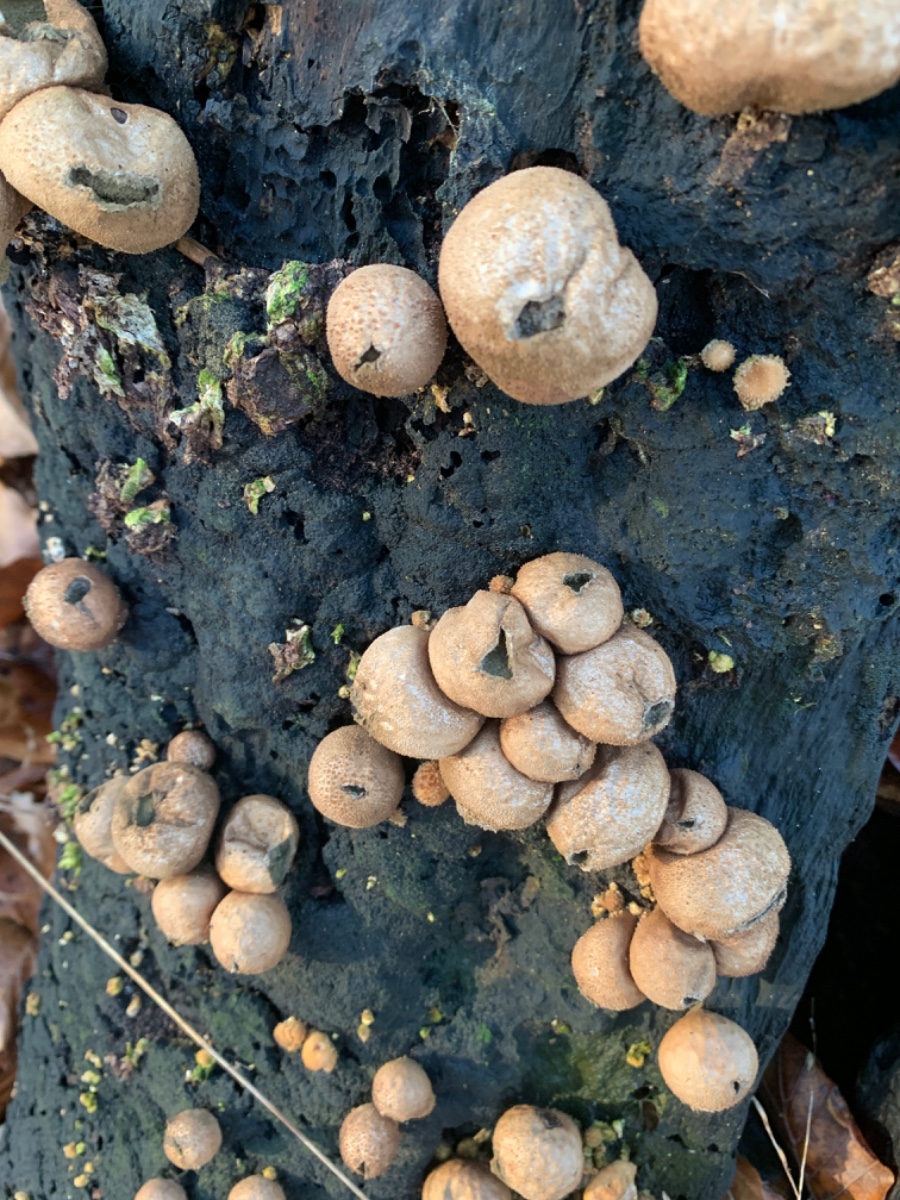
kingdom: Fungi
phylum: Basidiomycota
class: Agaricomycetes
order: Agaricales
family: Lycoperdaceae
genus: Apioperdon
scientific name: Apioperdon pyriforme
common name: pære-støvbold
